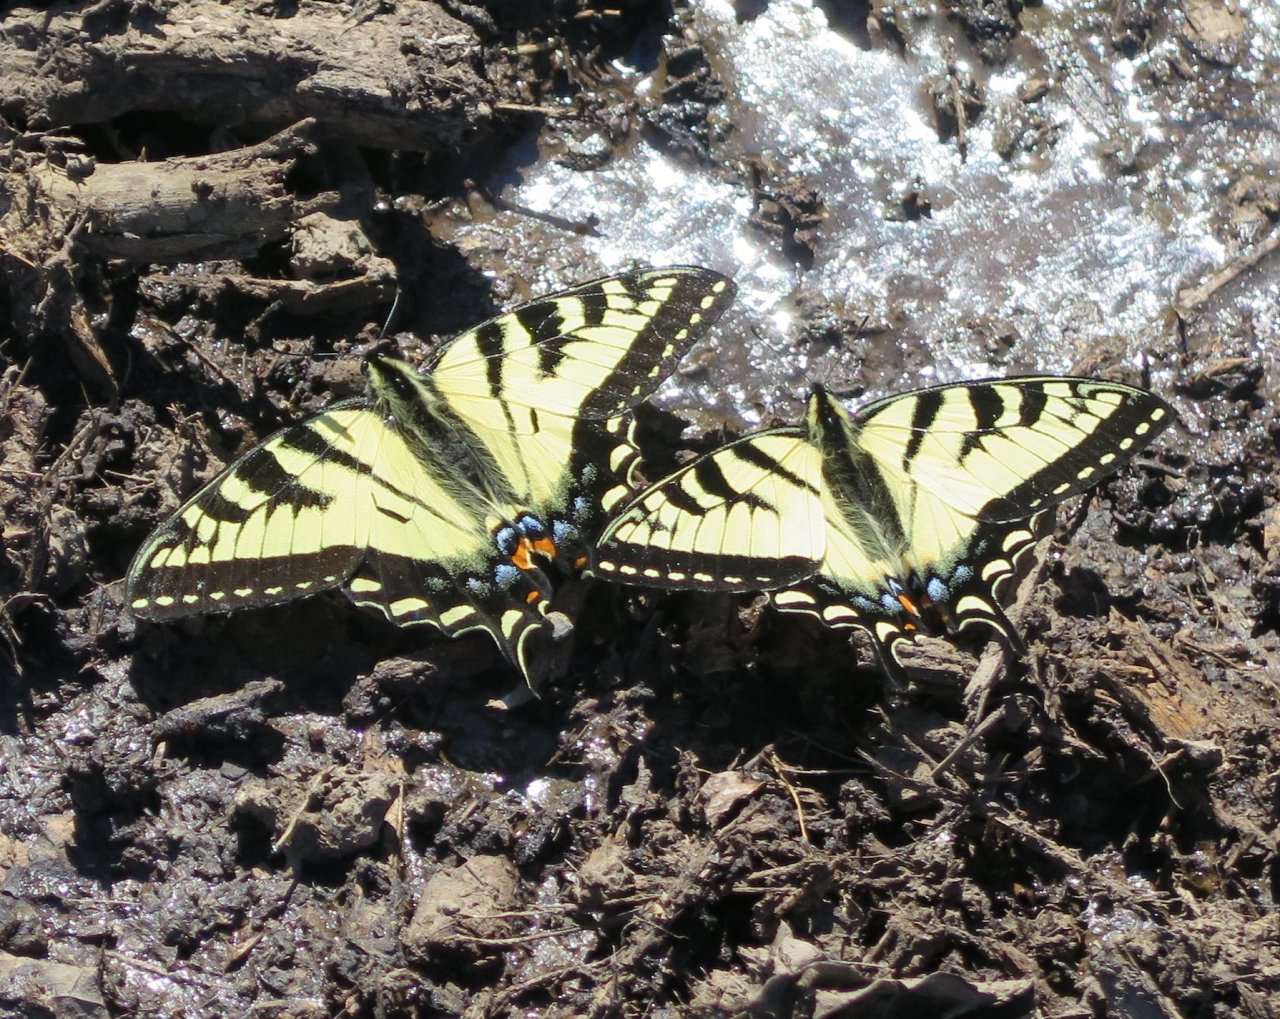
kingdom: Animalia
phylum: Arthropoda
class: Insecta
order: Lepidoptera
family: Papilionidae
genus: Pterourus
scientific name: Pterourus canadensis
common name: Canadian Tiger Swallowtail
